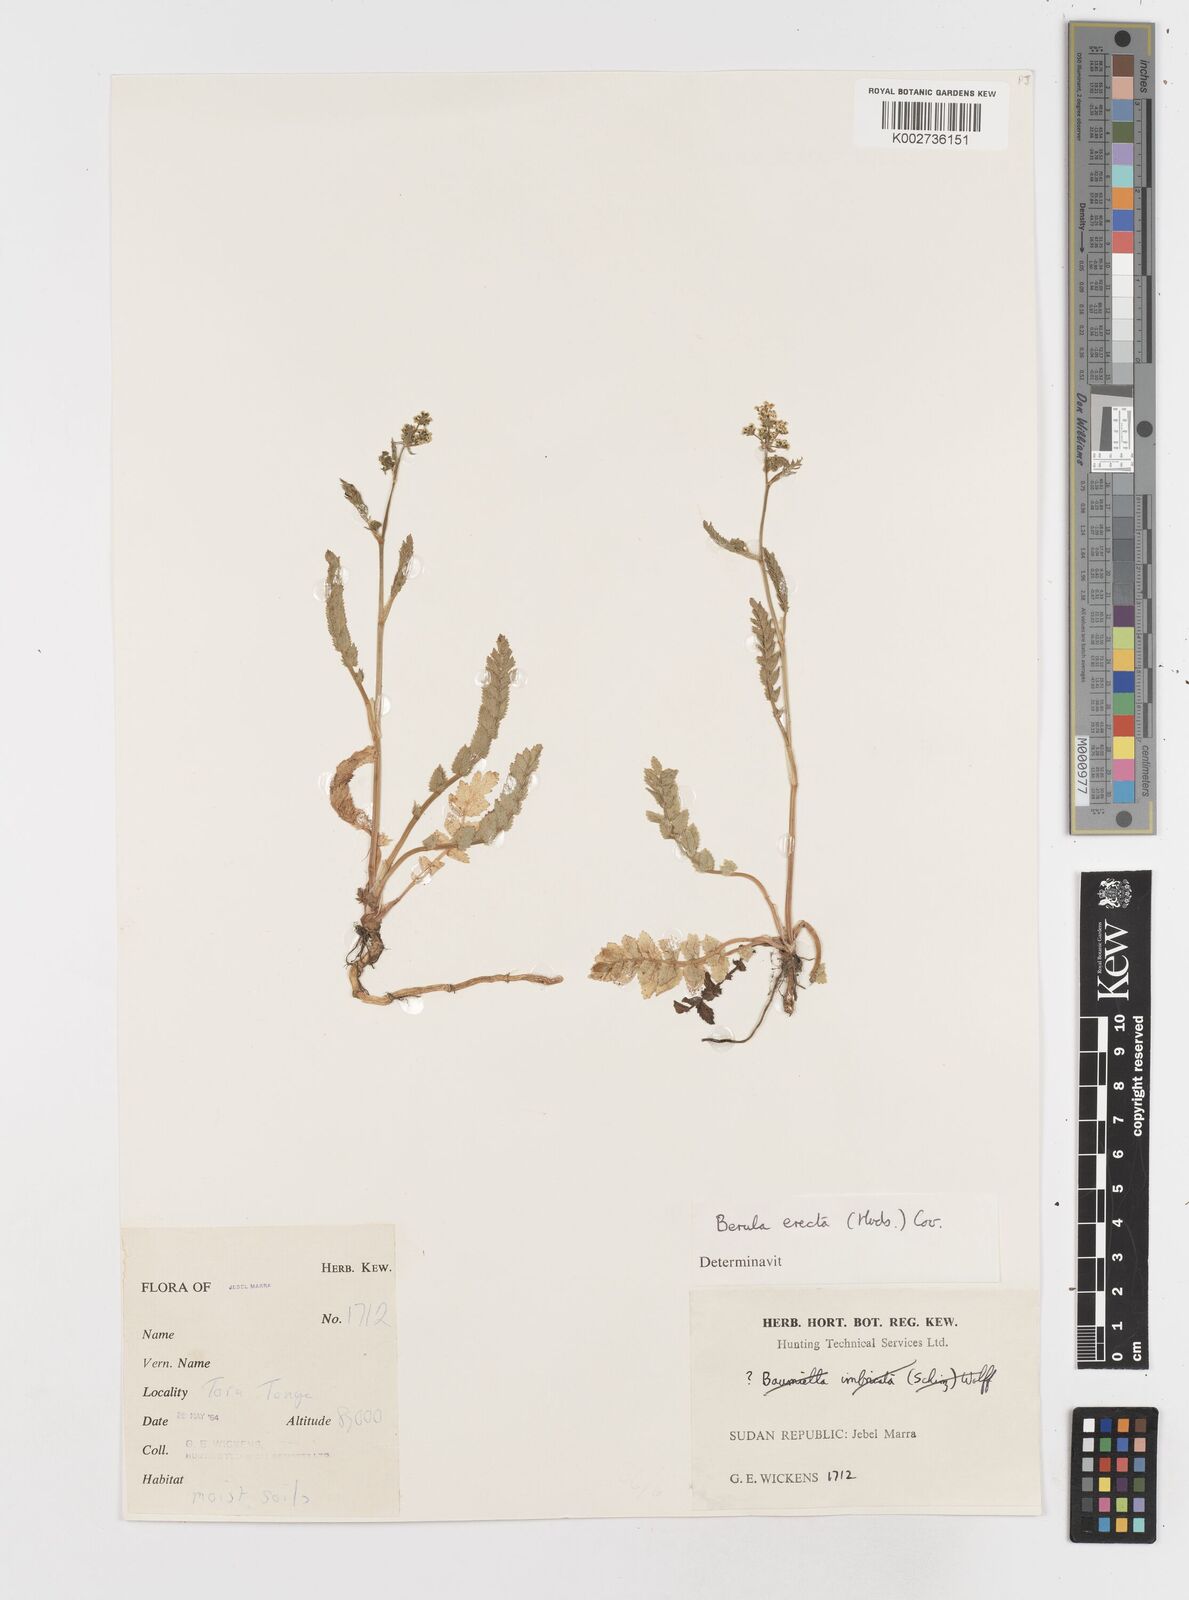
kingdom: Plantae
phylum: Tracheophyta
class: Magnoliopsida
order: Apiales
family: Apiaceae
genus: Berula
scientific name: Berula erecta
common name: Lesser water-parsnip
